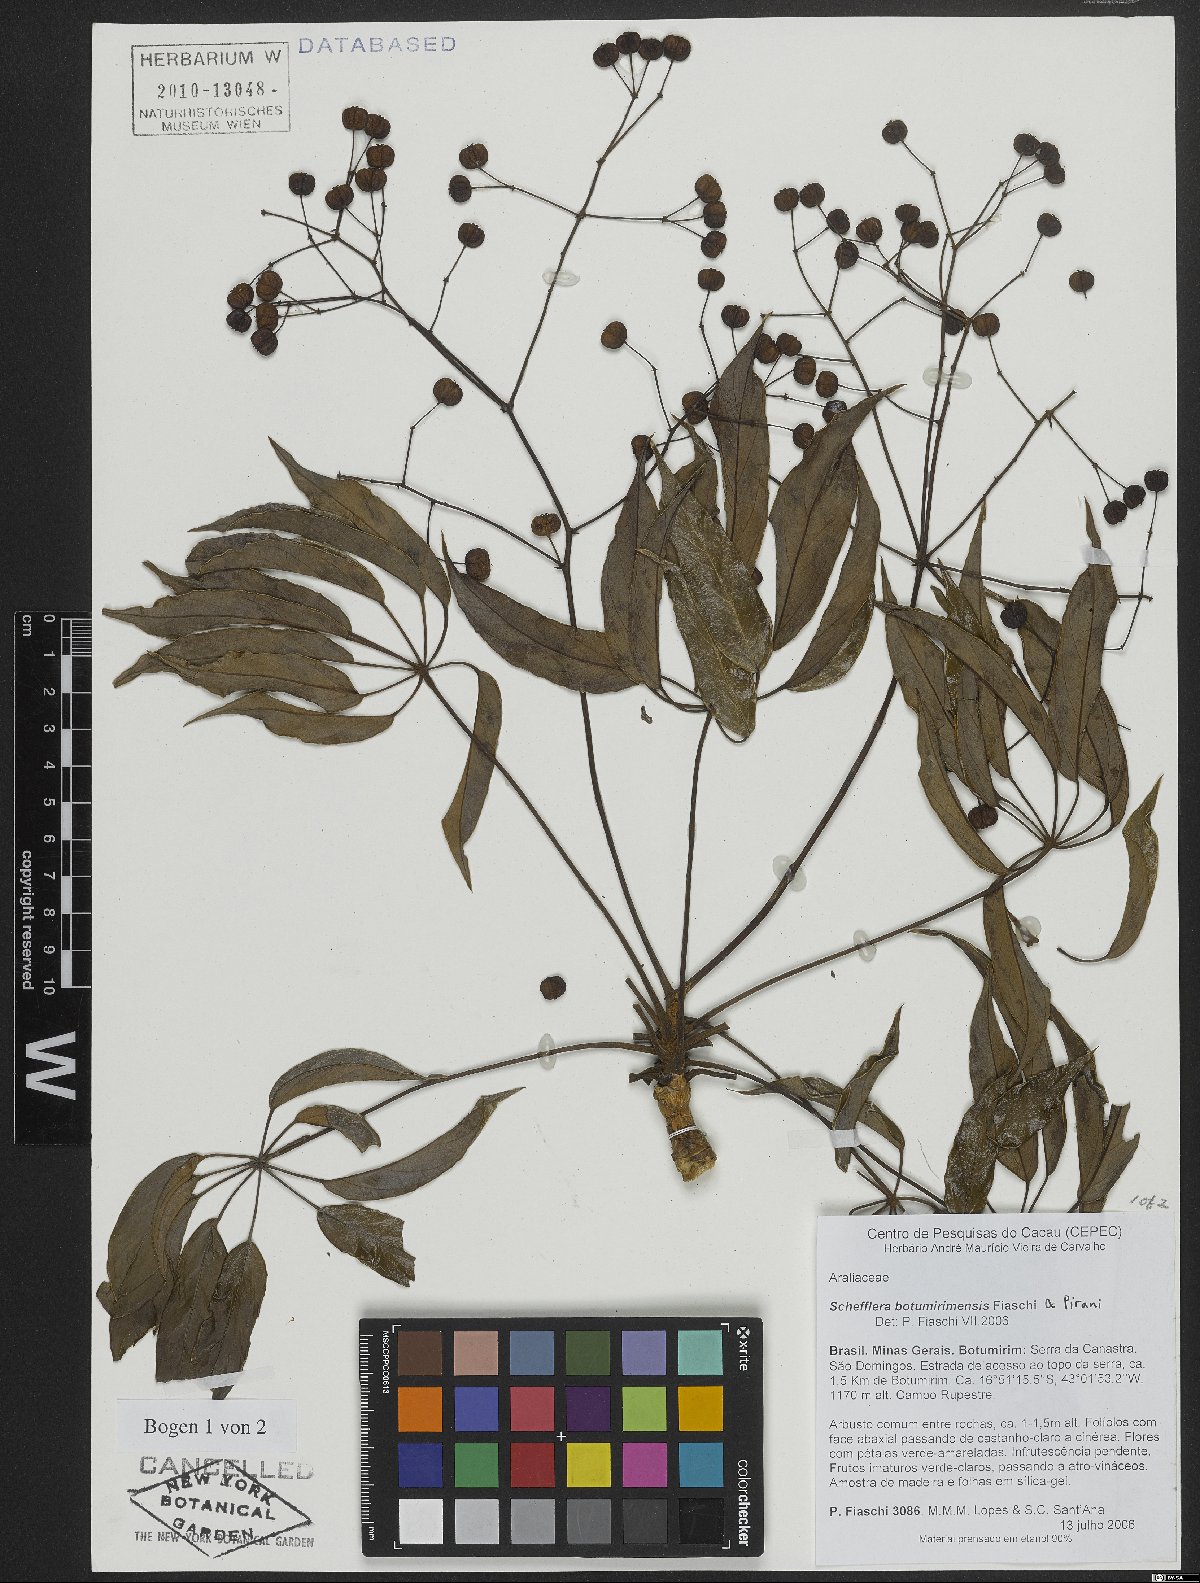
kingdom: Plantae
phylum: Tracheophyta
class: Magnoliopsida
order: Apiales
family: Araliaceae
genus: Didymopanax
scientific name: Didymopanax botumirimensis
